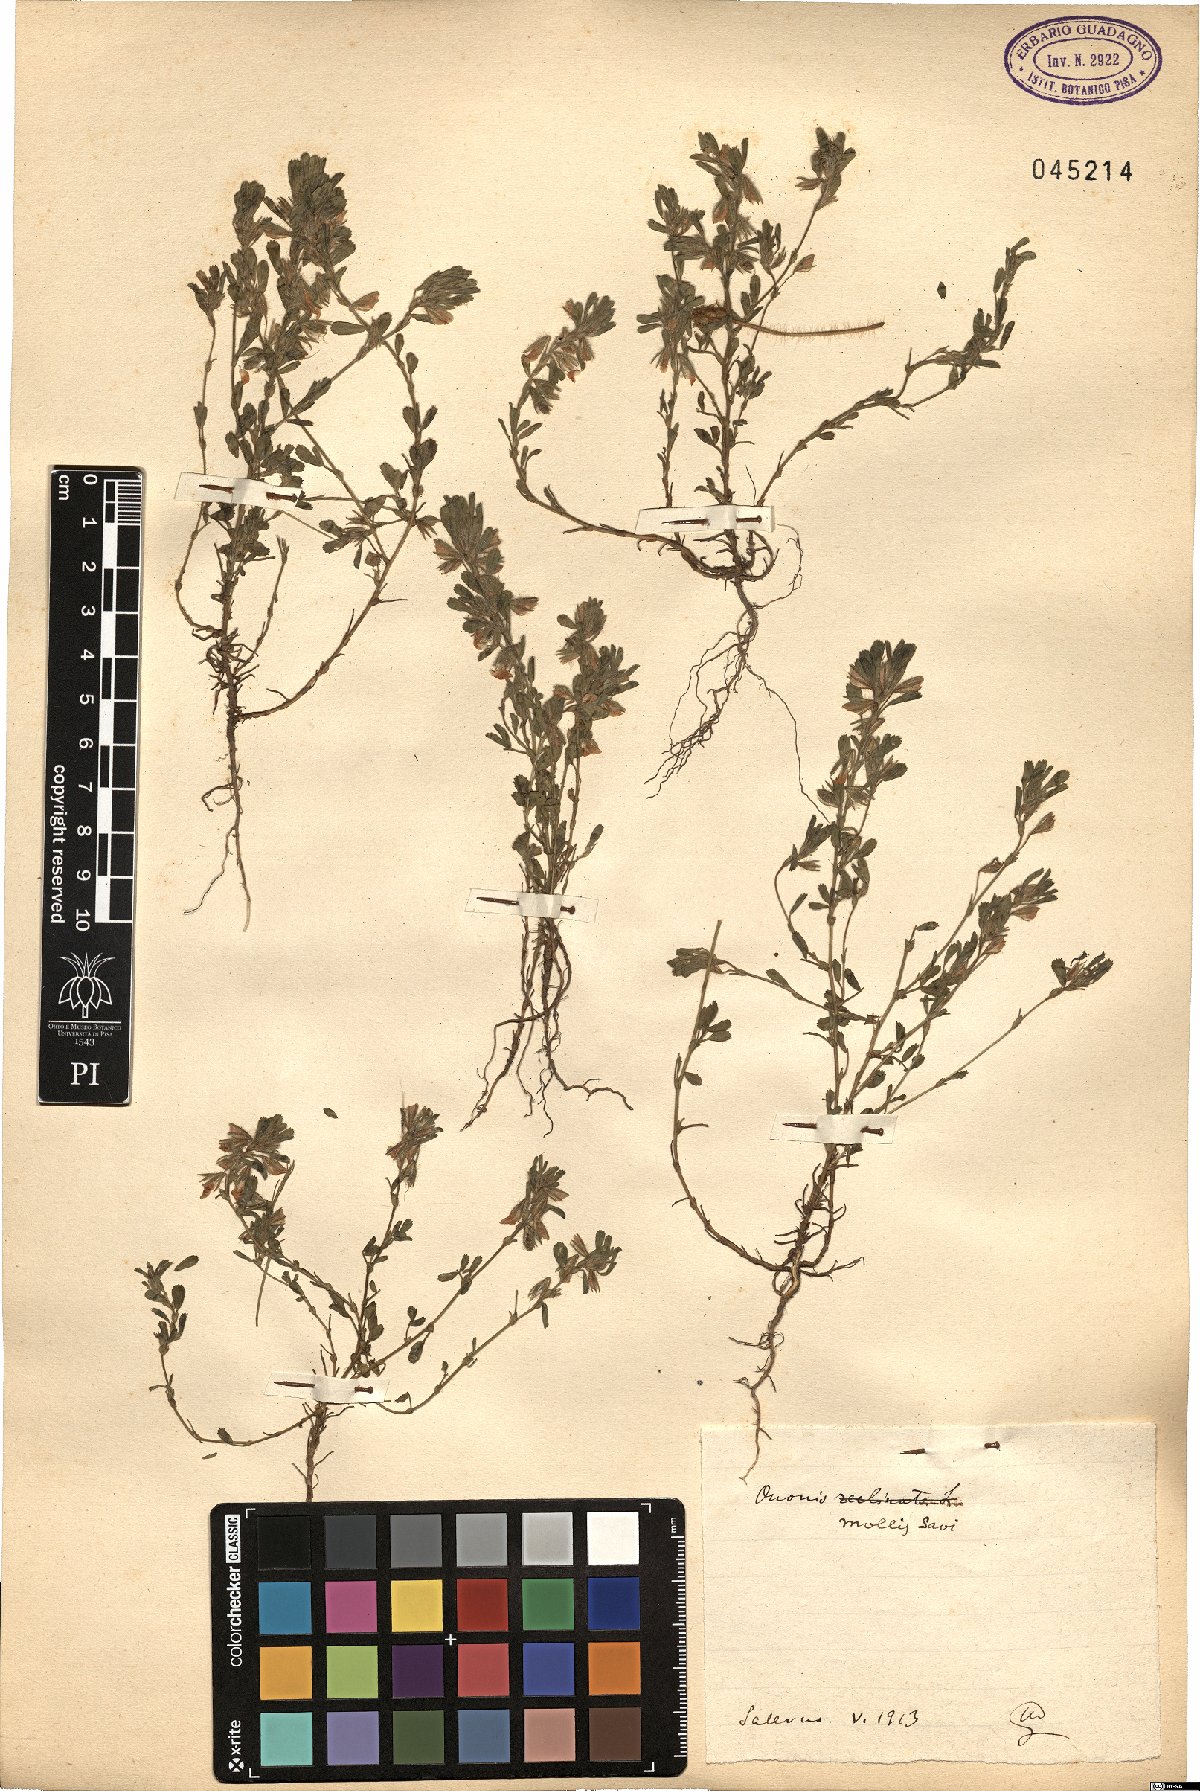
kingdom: Plantae
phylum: Tracheophyta
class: Magnoliopsida
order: Fabales
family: Fabaceae
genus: Ononis
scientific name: Ononis reclinata
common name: Small restharrow
